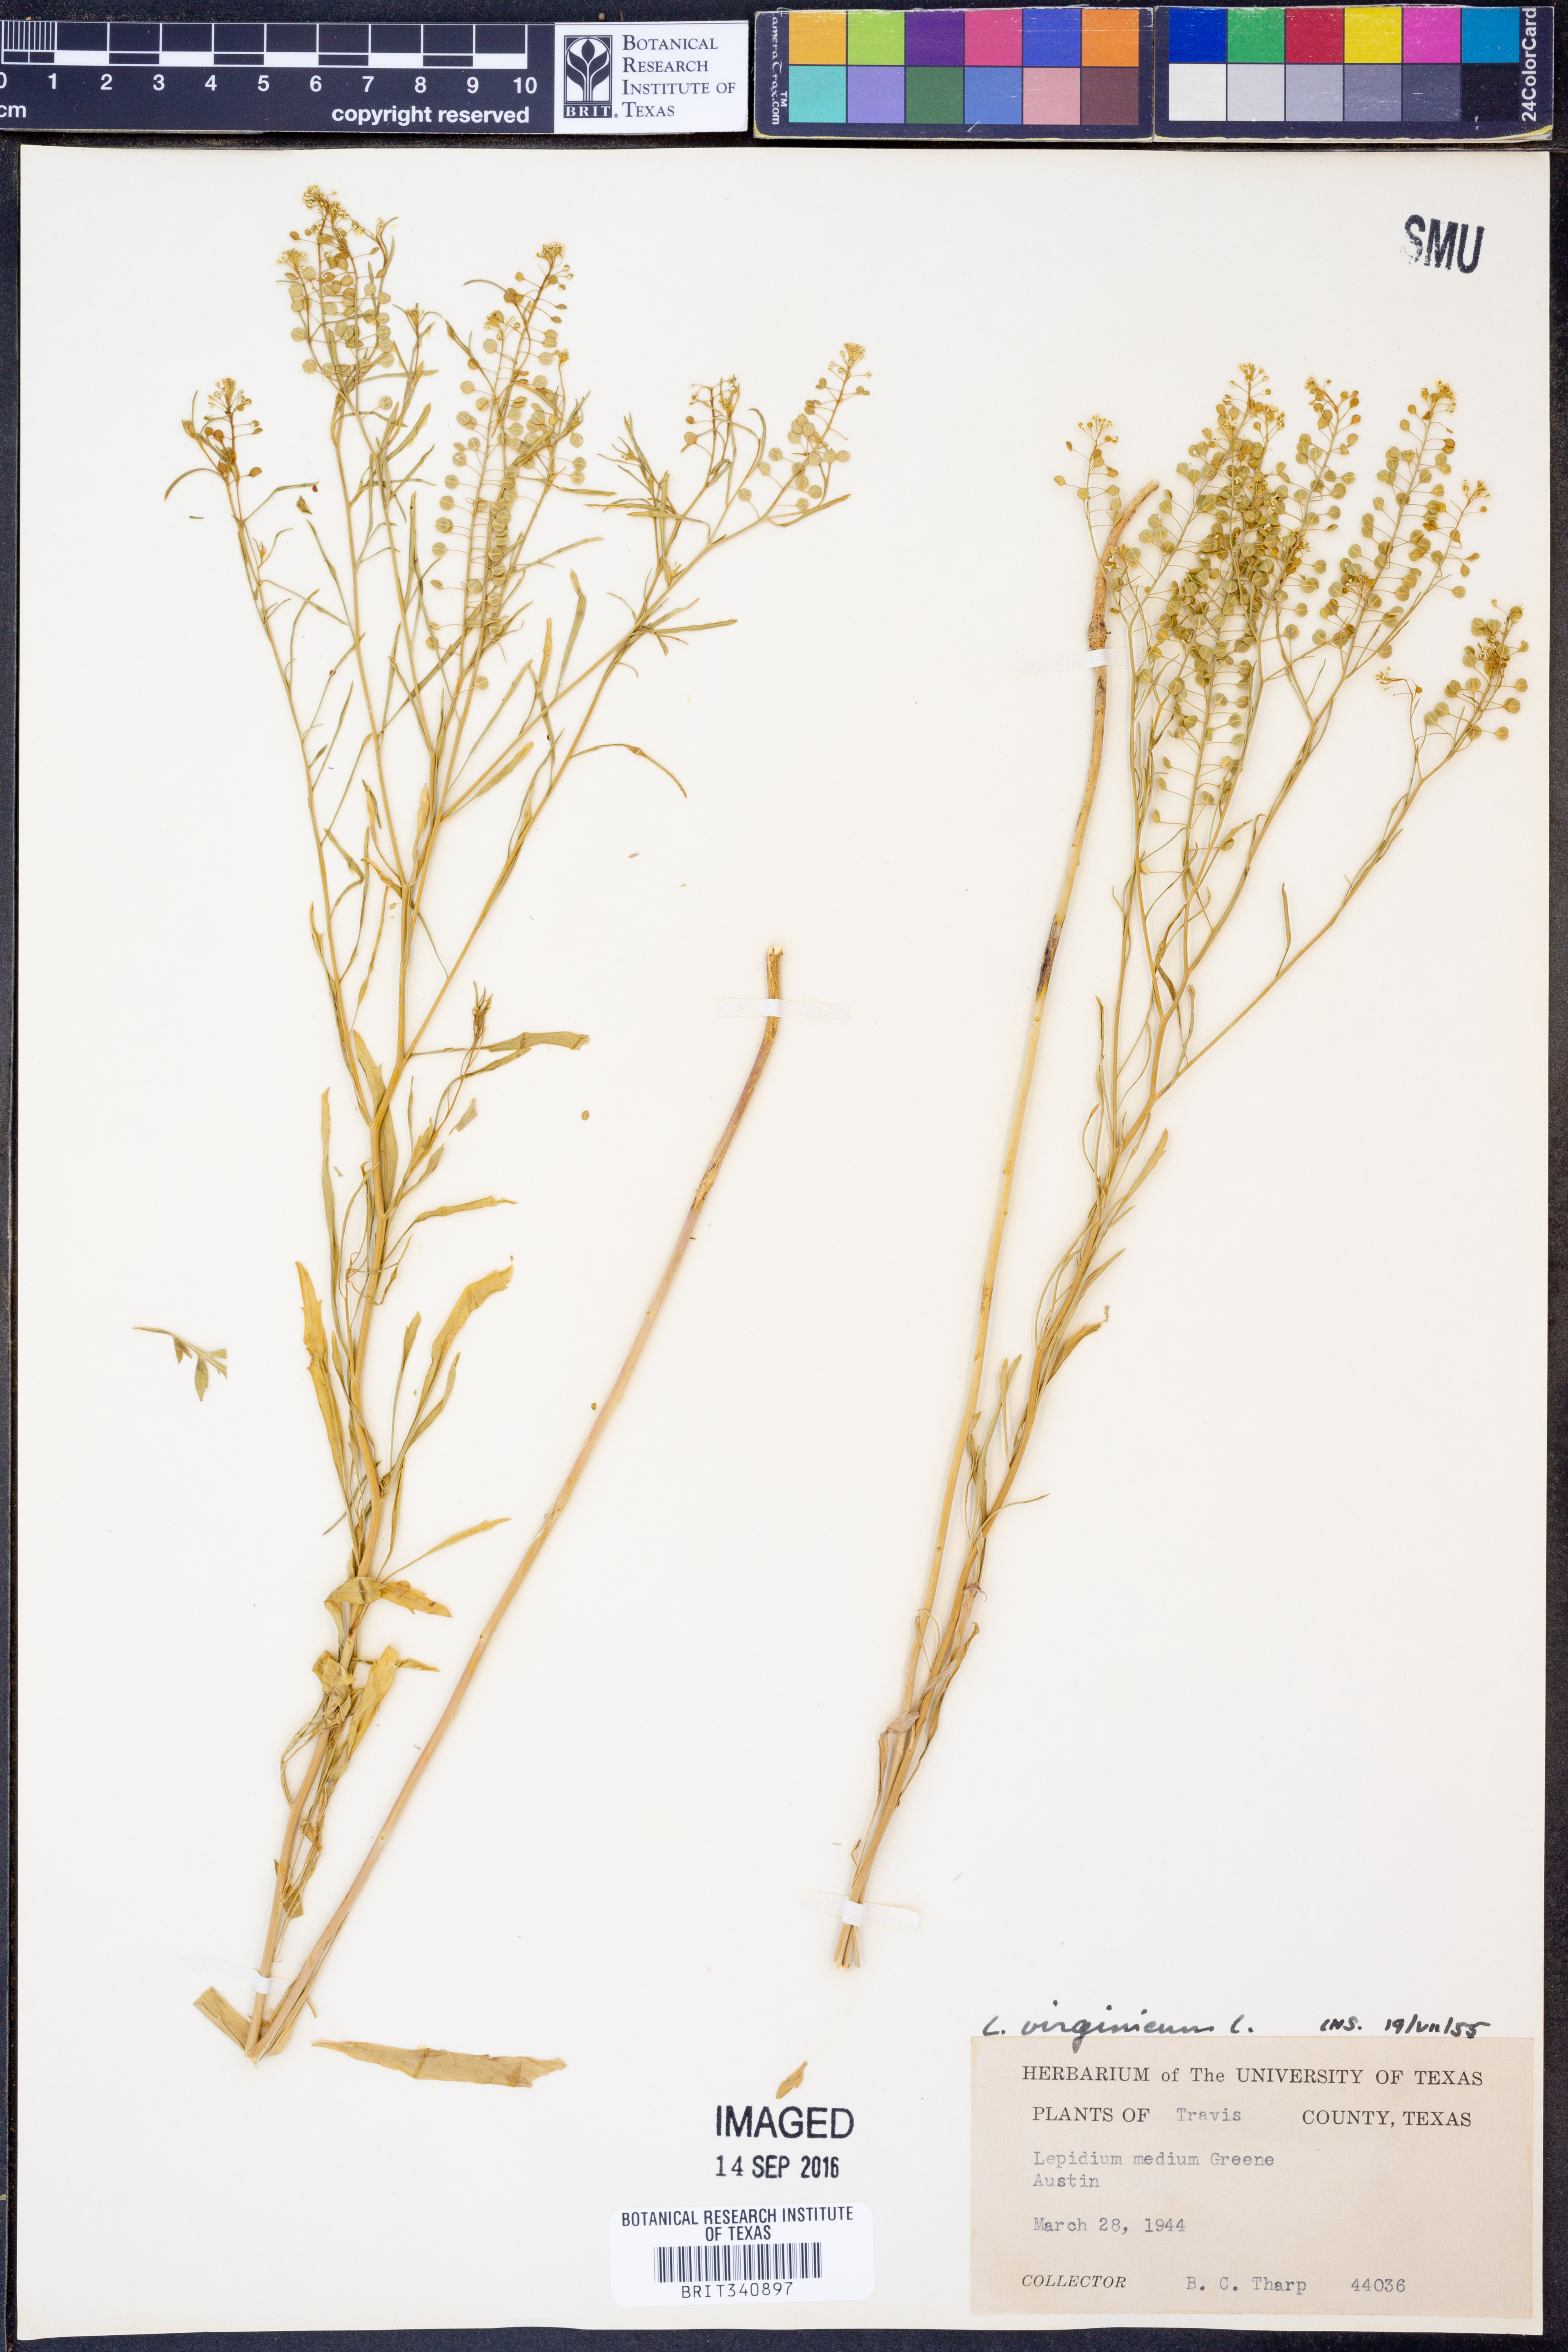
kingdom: Plantae
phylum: Tracheophyta
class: Magnoliopsida
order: Brassicales
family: Brassicaceae
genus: Lepidium
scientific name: Lepidium virginicum
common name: Least pepperwort
